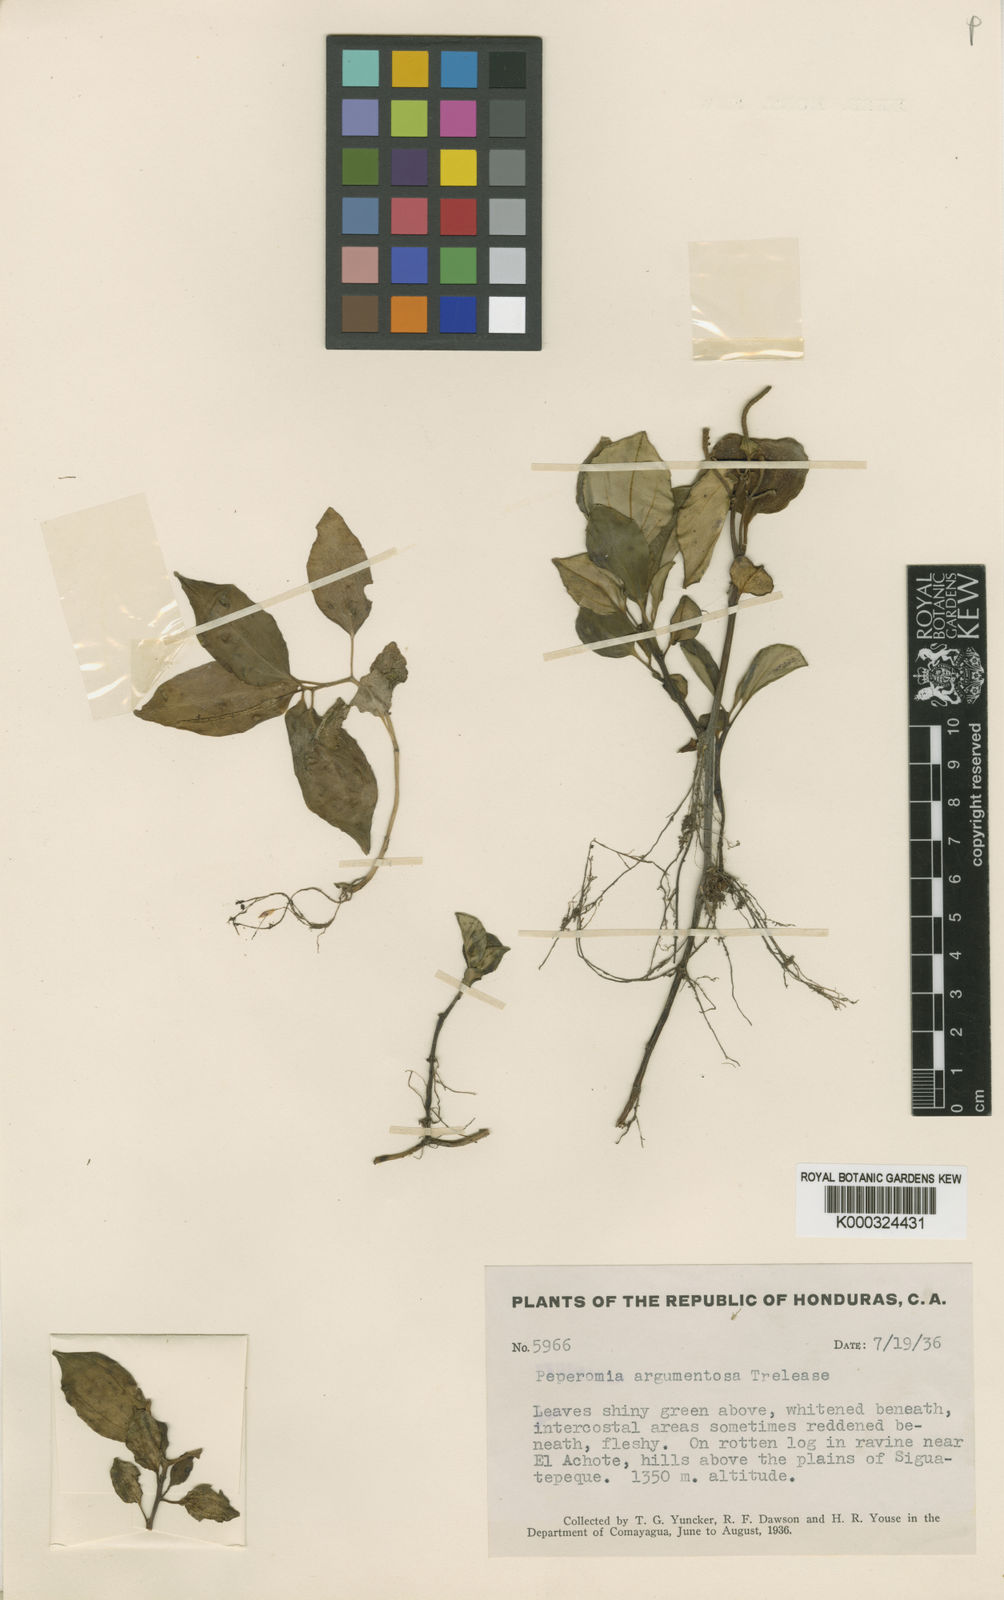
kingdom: Plantae
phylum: Tracheophyta
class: Magnoliopsida
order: Piperales
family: Piperaceae
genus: Peperomia
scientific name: Peperomia
